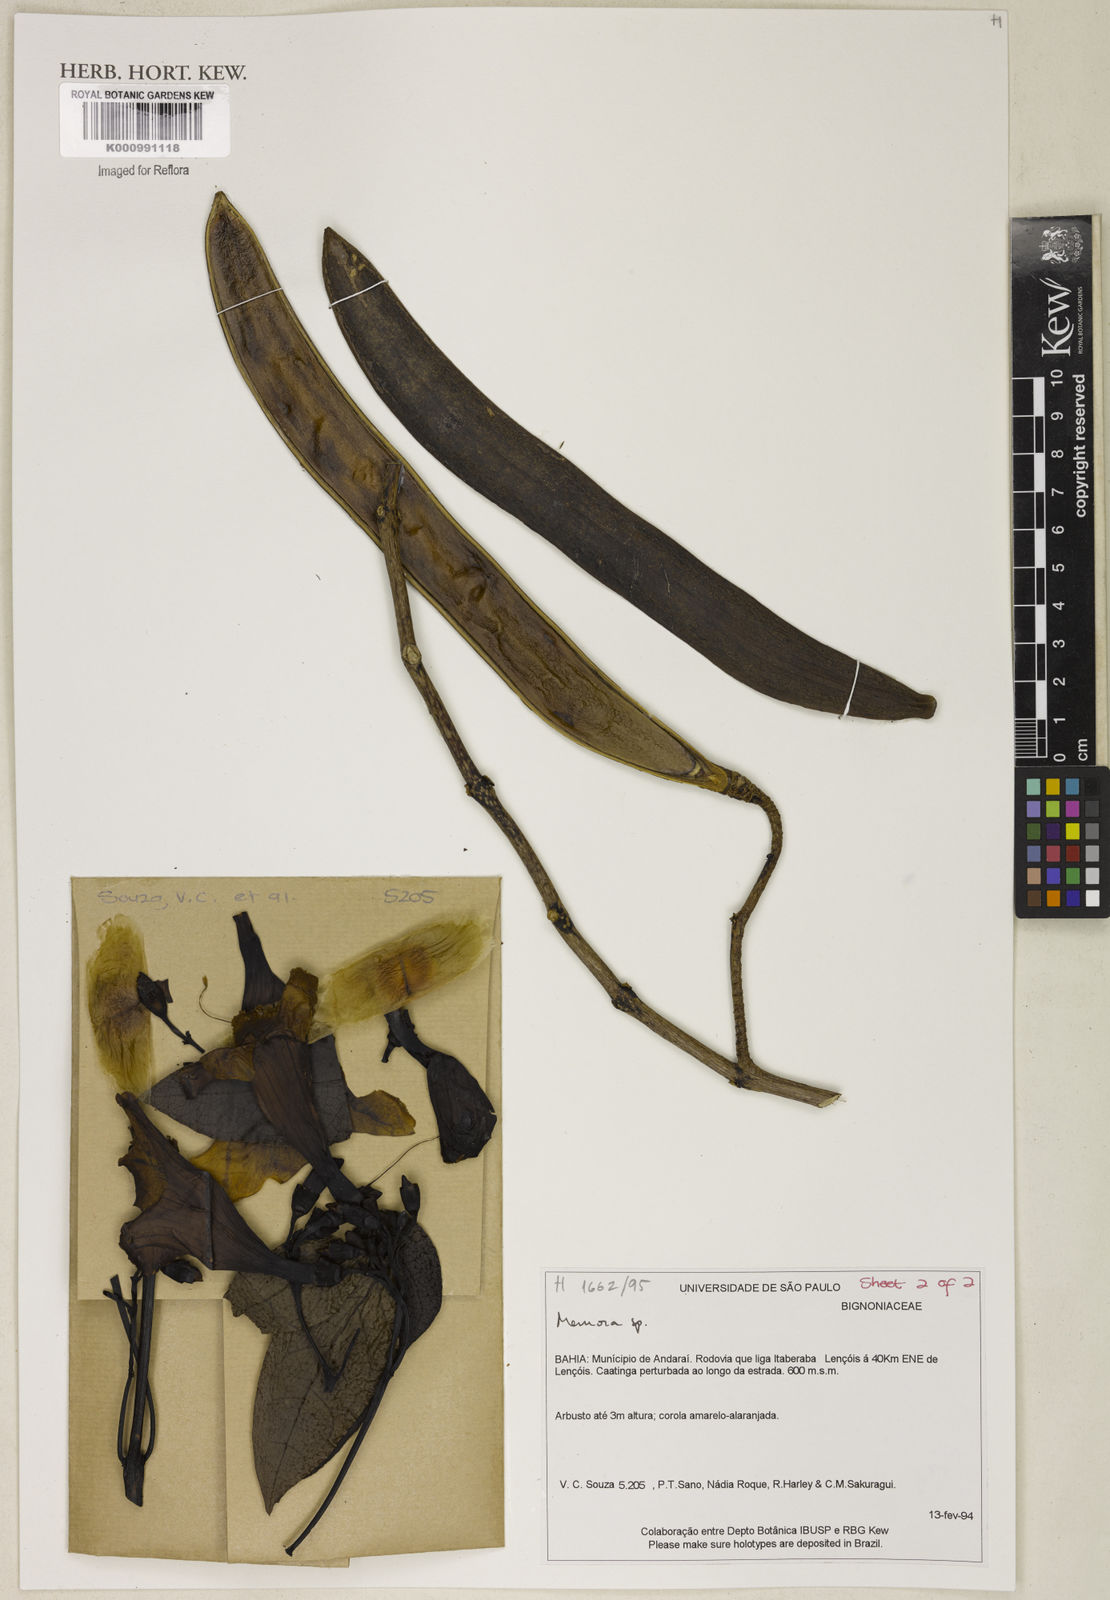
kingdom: Plantae
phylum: Tracheophyta
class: Magnoliopsida
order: Lamiales
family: Bignoniaceae
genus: Adenocalymma
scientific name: Adenocalymma pedunculatum
